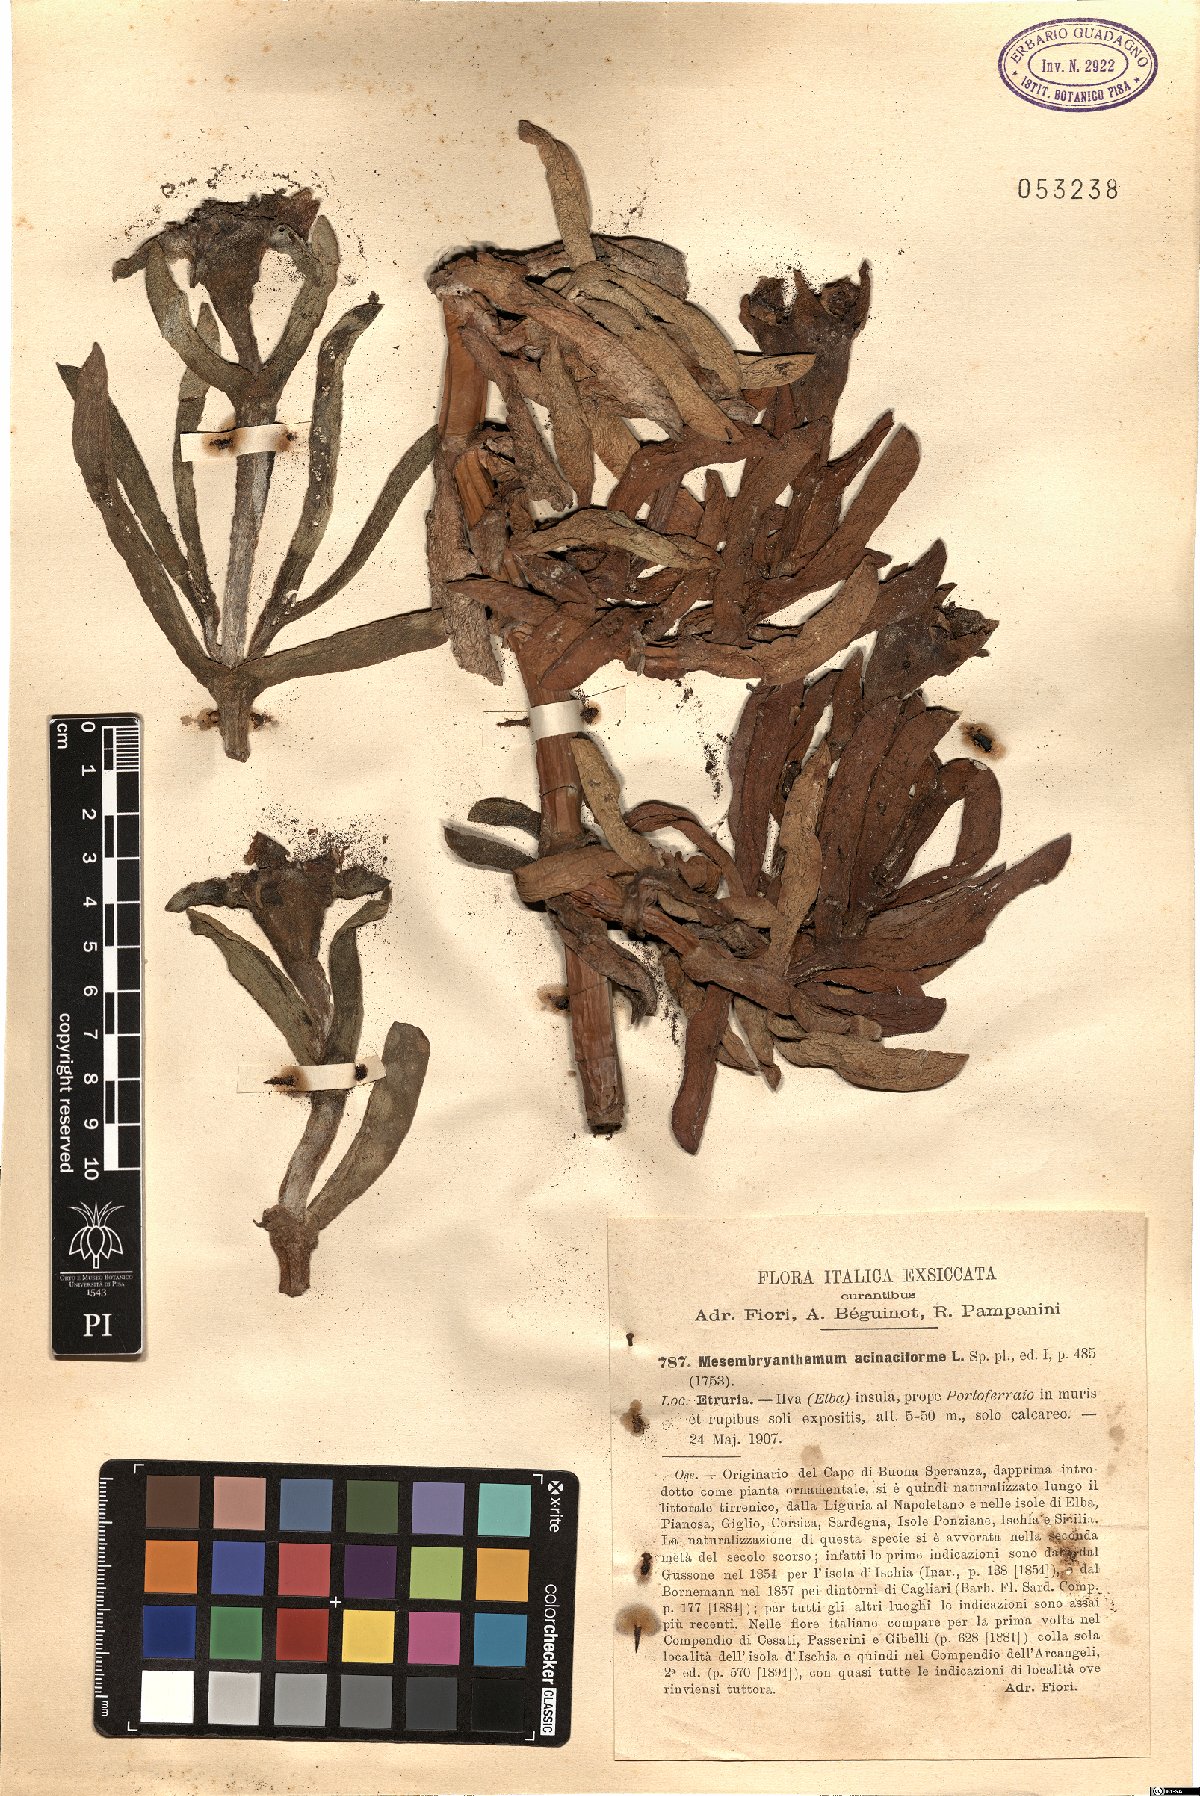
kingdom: Plantae
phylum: Tracheophyta
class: Magnoliopsida
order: Caryophyllales
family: Aizoaceae
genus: Carpobrotus
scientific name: Carpobrotus acinaciformis
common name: Sally-my-handsome
